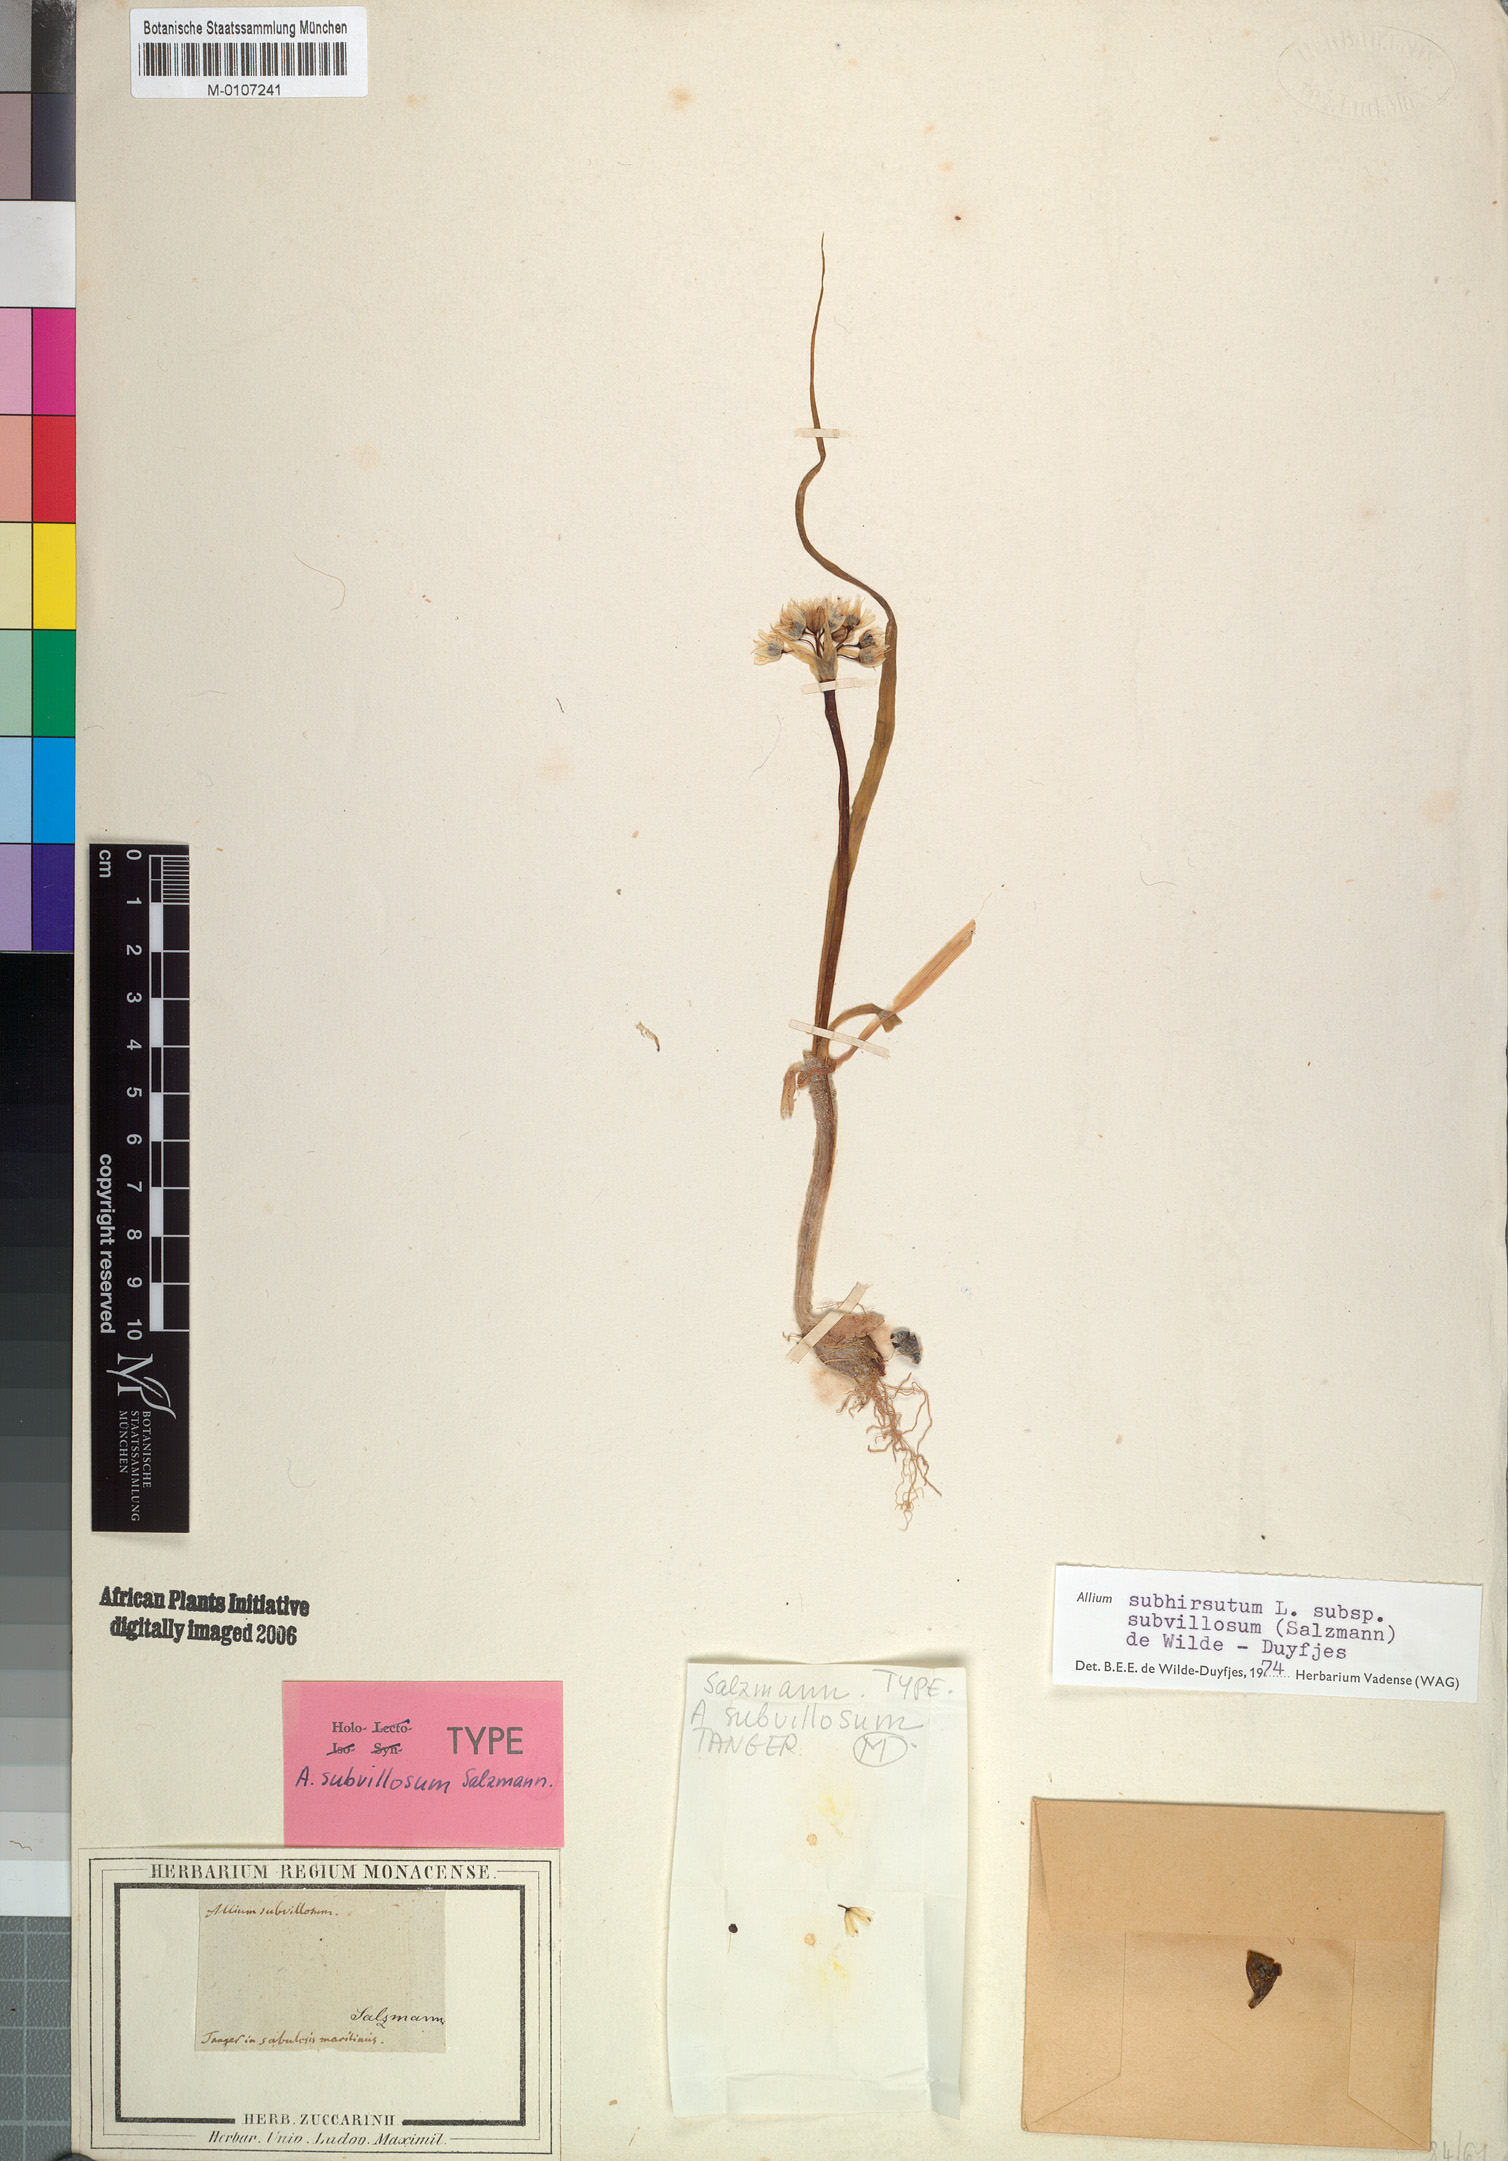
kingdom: Plantae
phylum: Tracheophyta
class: Liliopsida
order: Asparagales
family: Amaryllidaceae
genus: Allium
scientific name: Allium subhirsutum
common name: Hairy garlic
